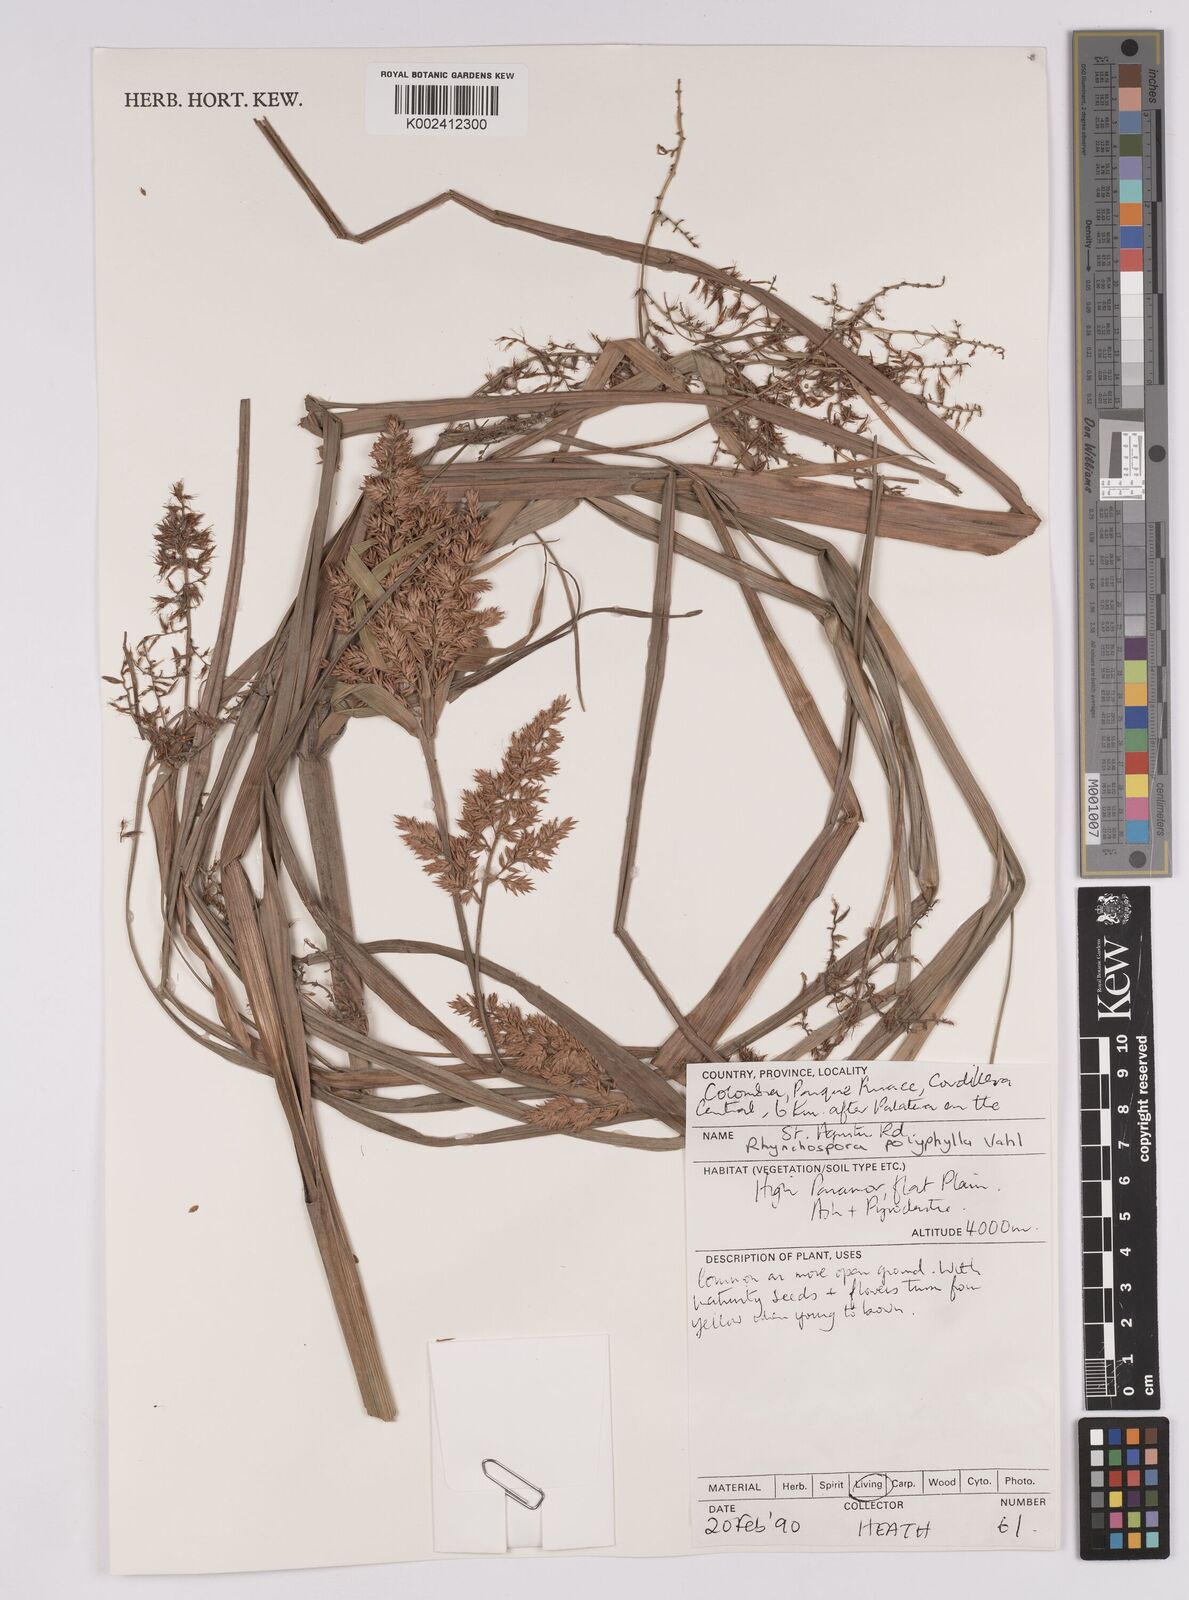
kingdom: Plantae
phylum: Tracheophyta
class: Liliopsida
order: Poales
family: Cyperaceae
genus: Rhynchospora
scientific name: Rhynchospora polyphylla
